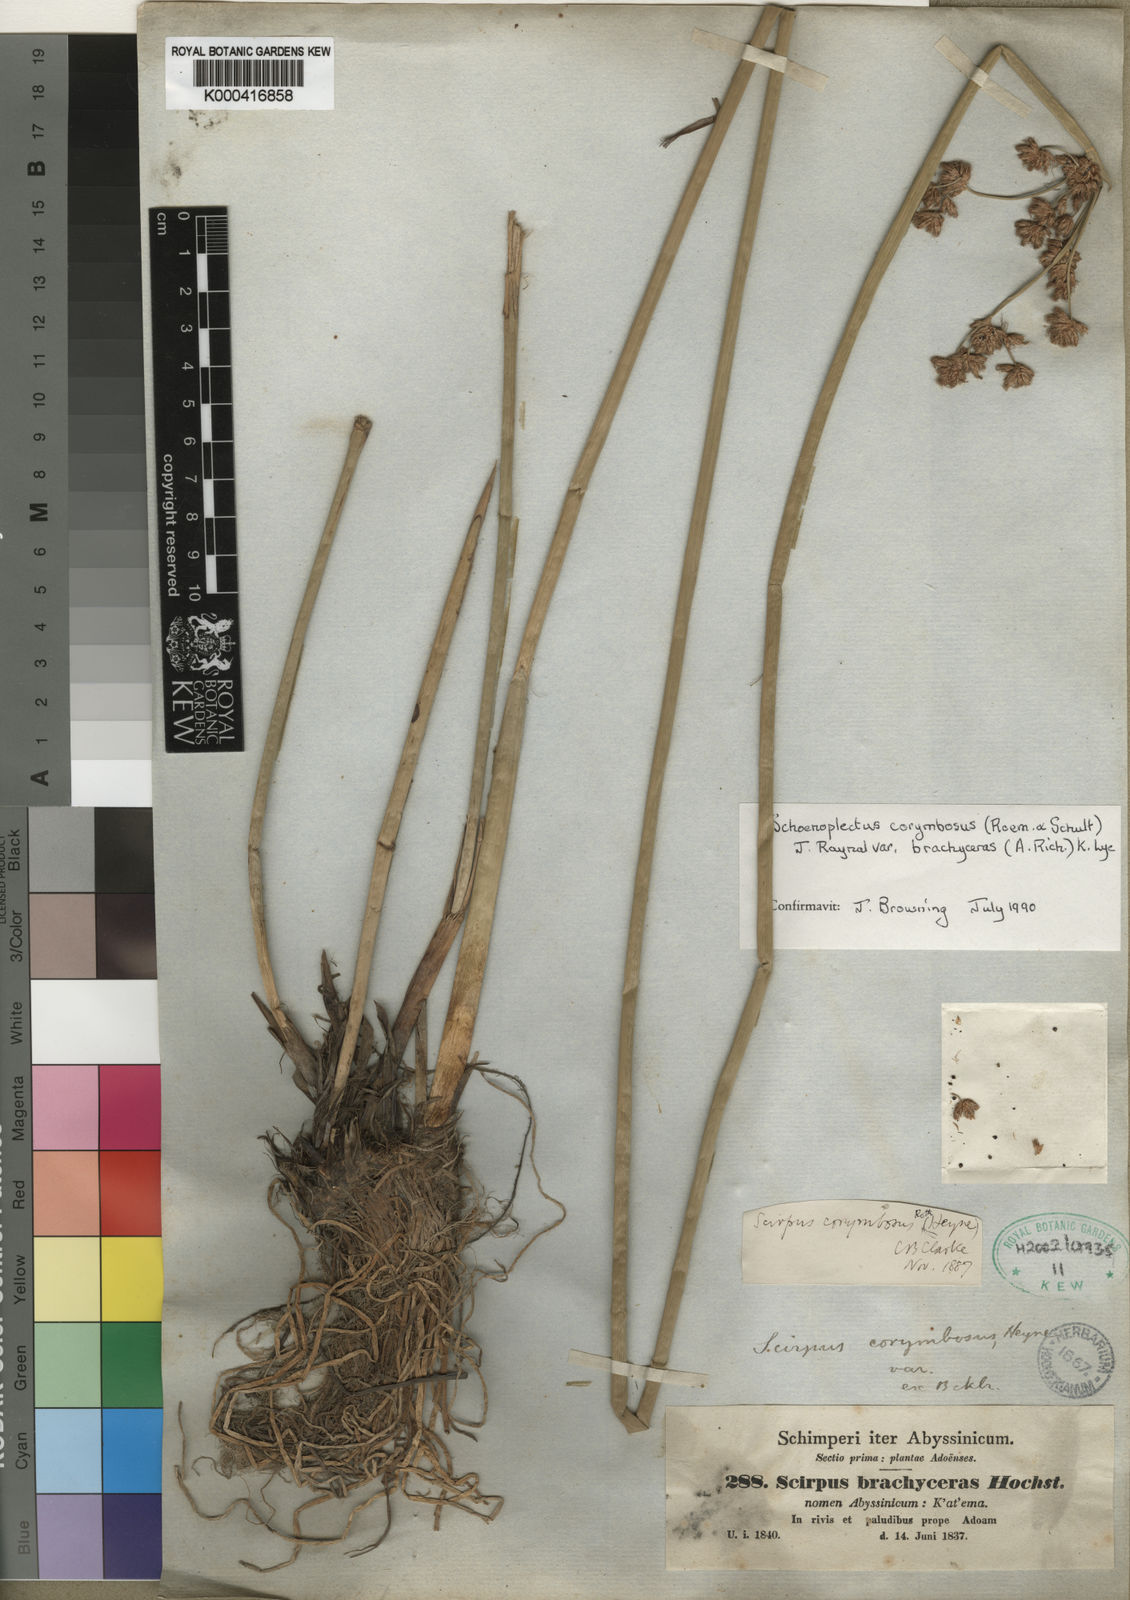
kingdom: Plantae
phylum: Tracheophyta
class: Liliopsida
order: Poales
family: Cyperaceae
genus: Schoenoplectiella
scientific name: Schoenoplectiella brachyceras
